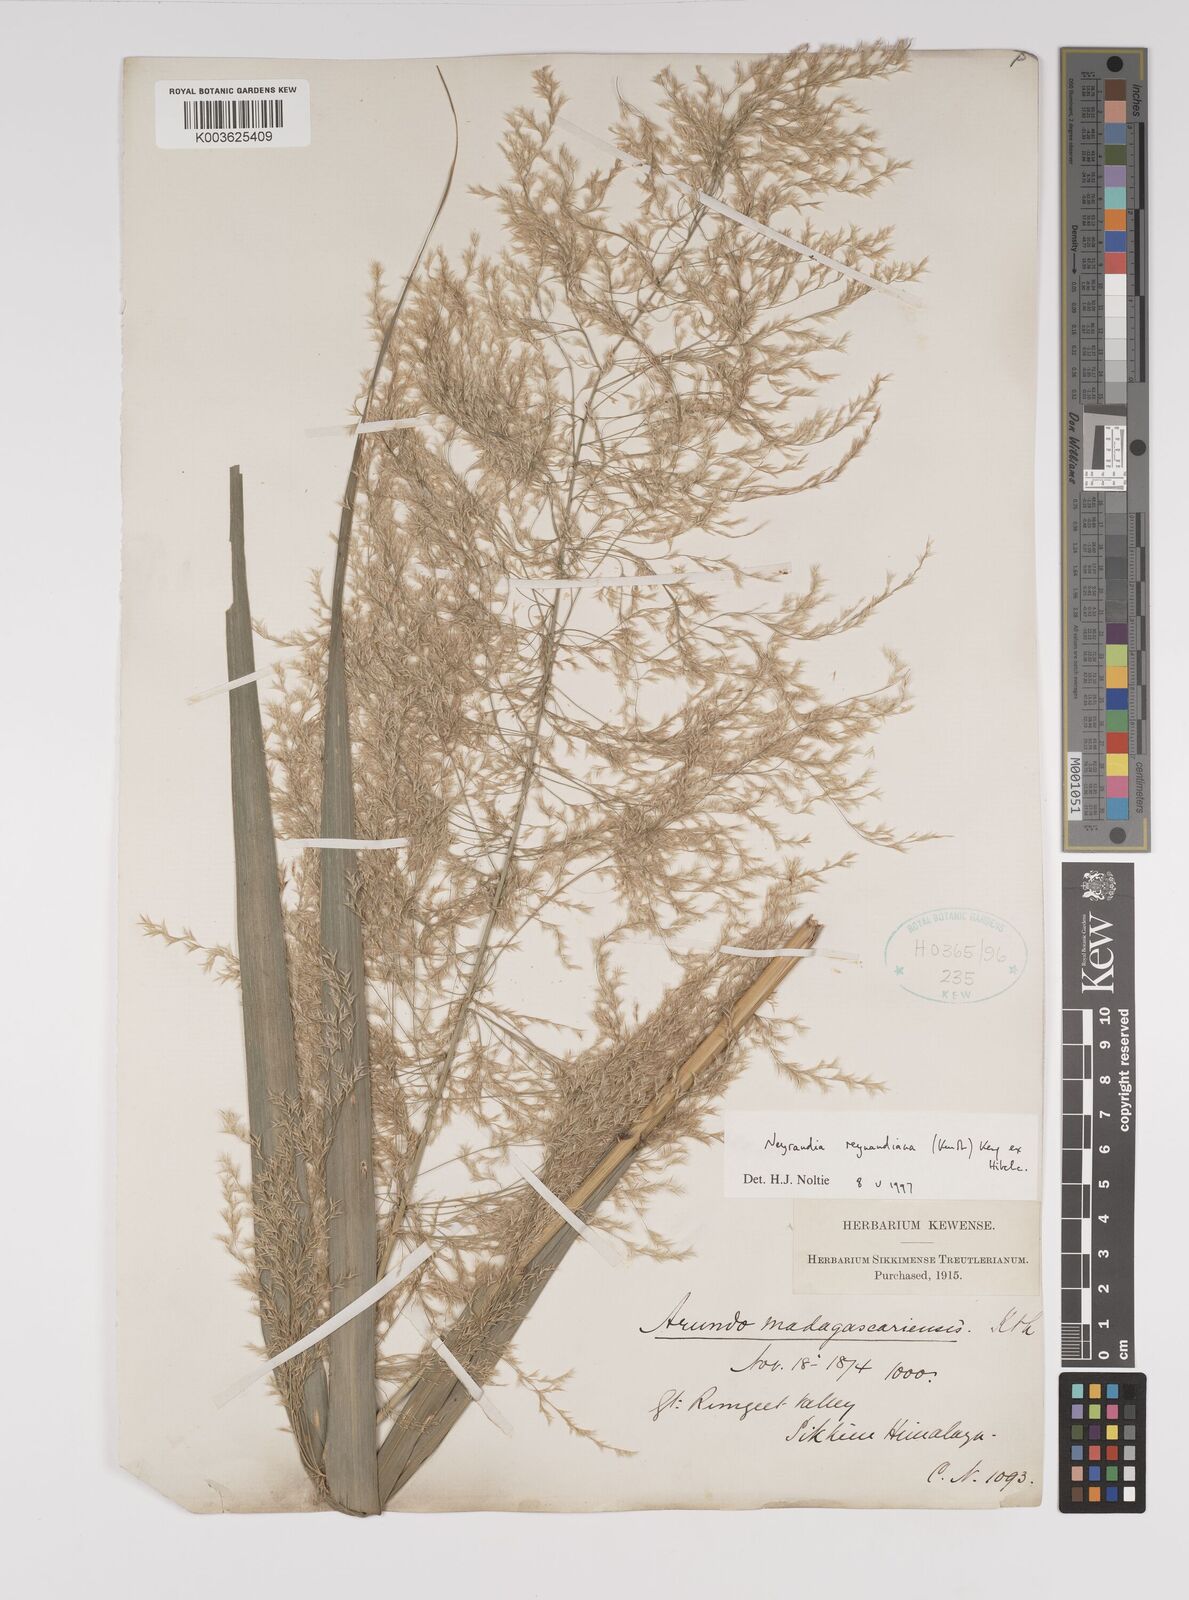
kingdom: Plantae
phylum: Tracheophyta
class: Liliopsida
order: Poales
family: Poaceae
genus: Neyraudia
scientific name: Neyraudia reynaudiana
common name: Silkreed
